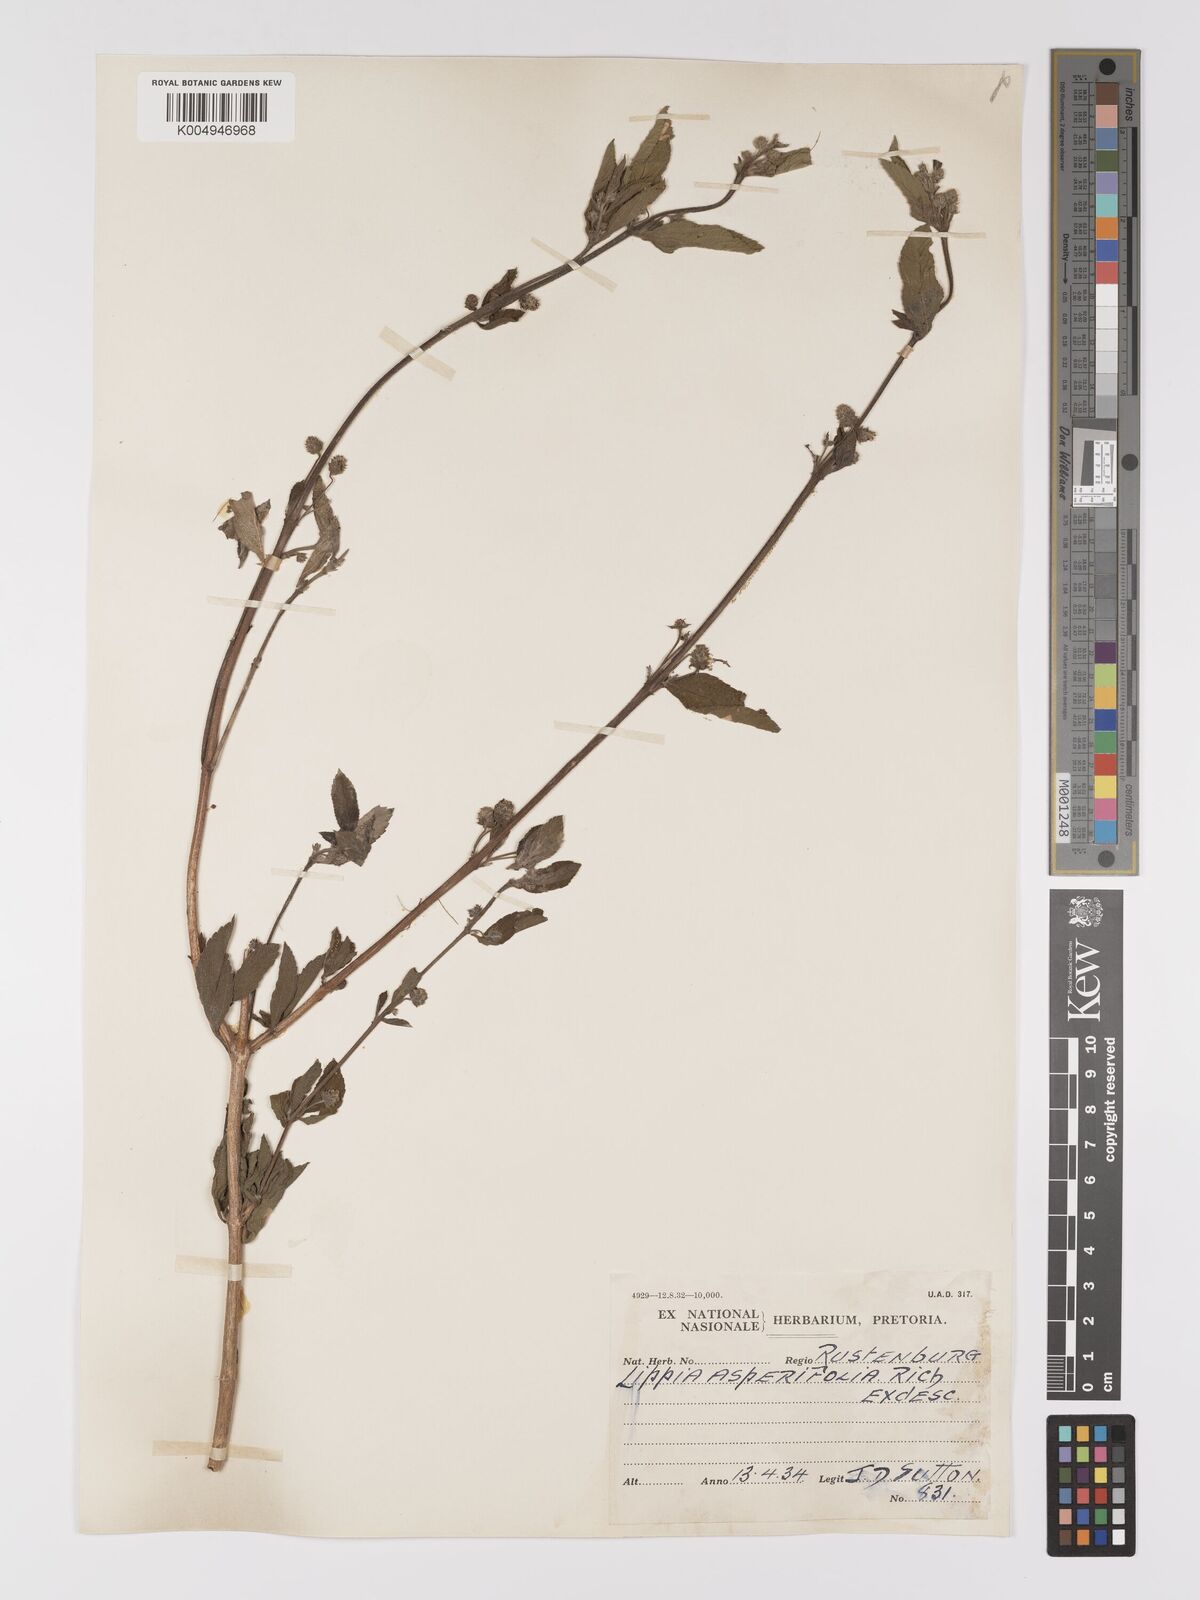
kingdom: Plantae
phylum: Tracheophyta
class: Magnoliopsida
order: Lamiales
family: Verbenaceae
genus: Lippia
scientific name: Lippia javanica
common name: Lemonbush
